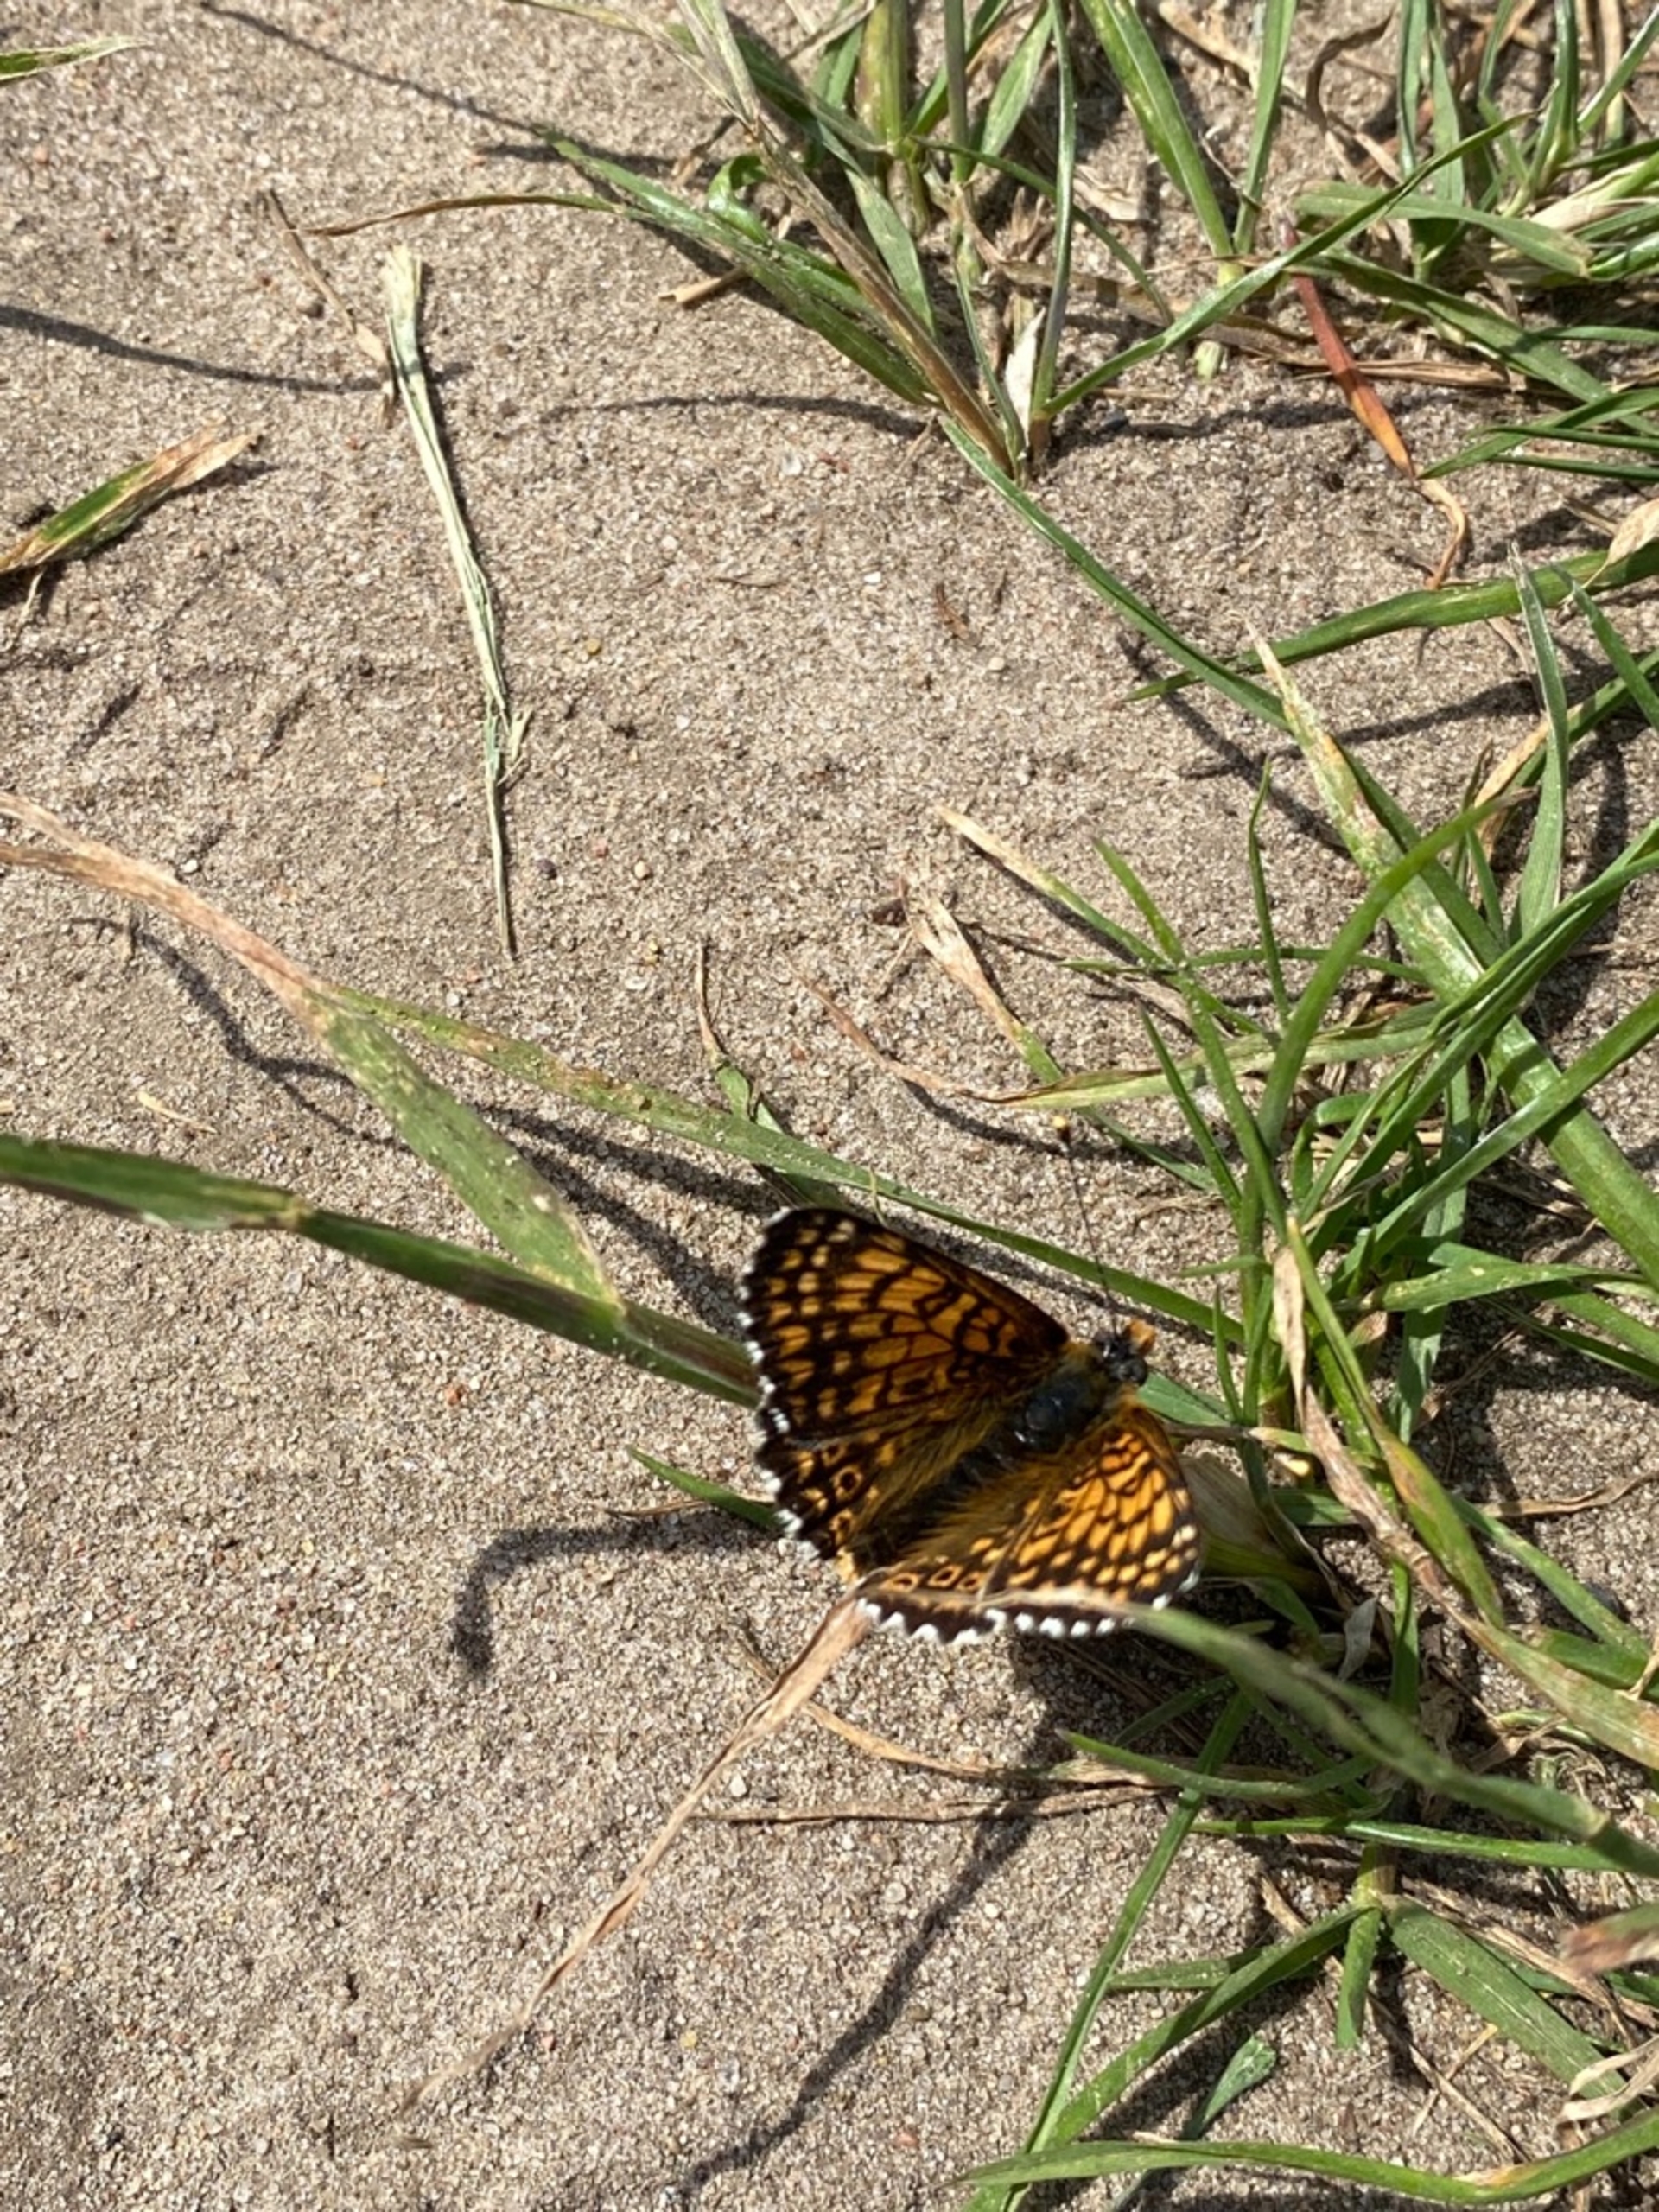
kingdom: Animalia
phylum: Arthropoda
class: Insecta
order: Lepidoptera
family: Nymphalidae
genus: Melitaea
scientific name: Melitaea cinxia
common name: Okkergul pletvinge
